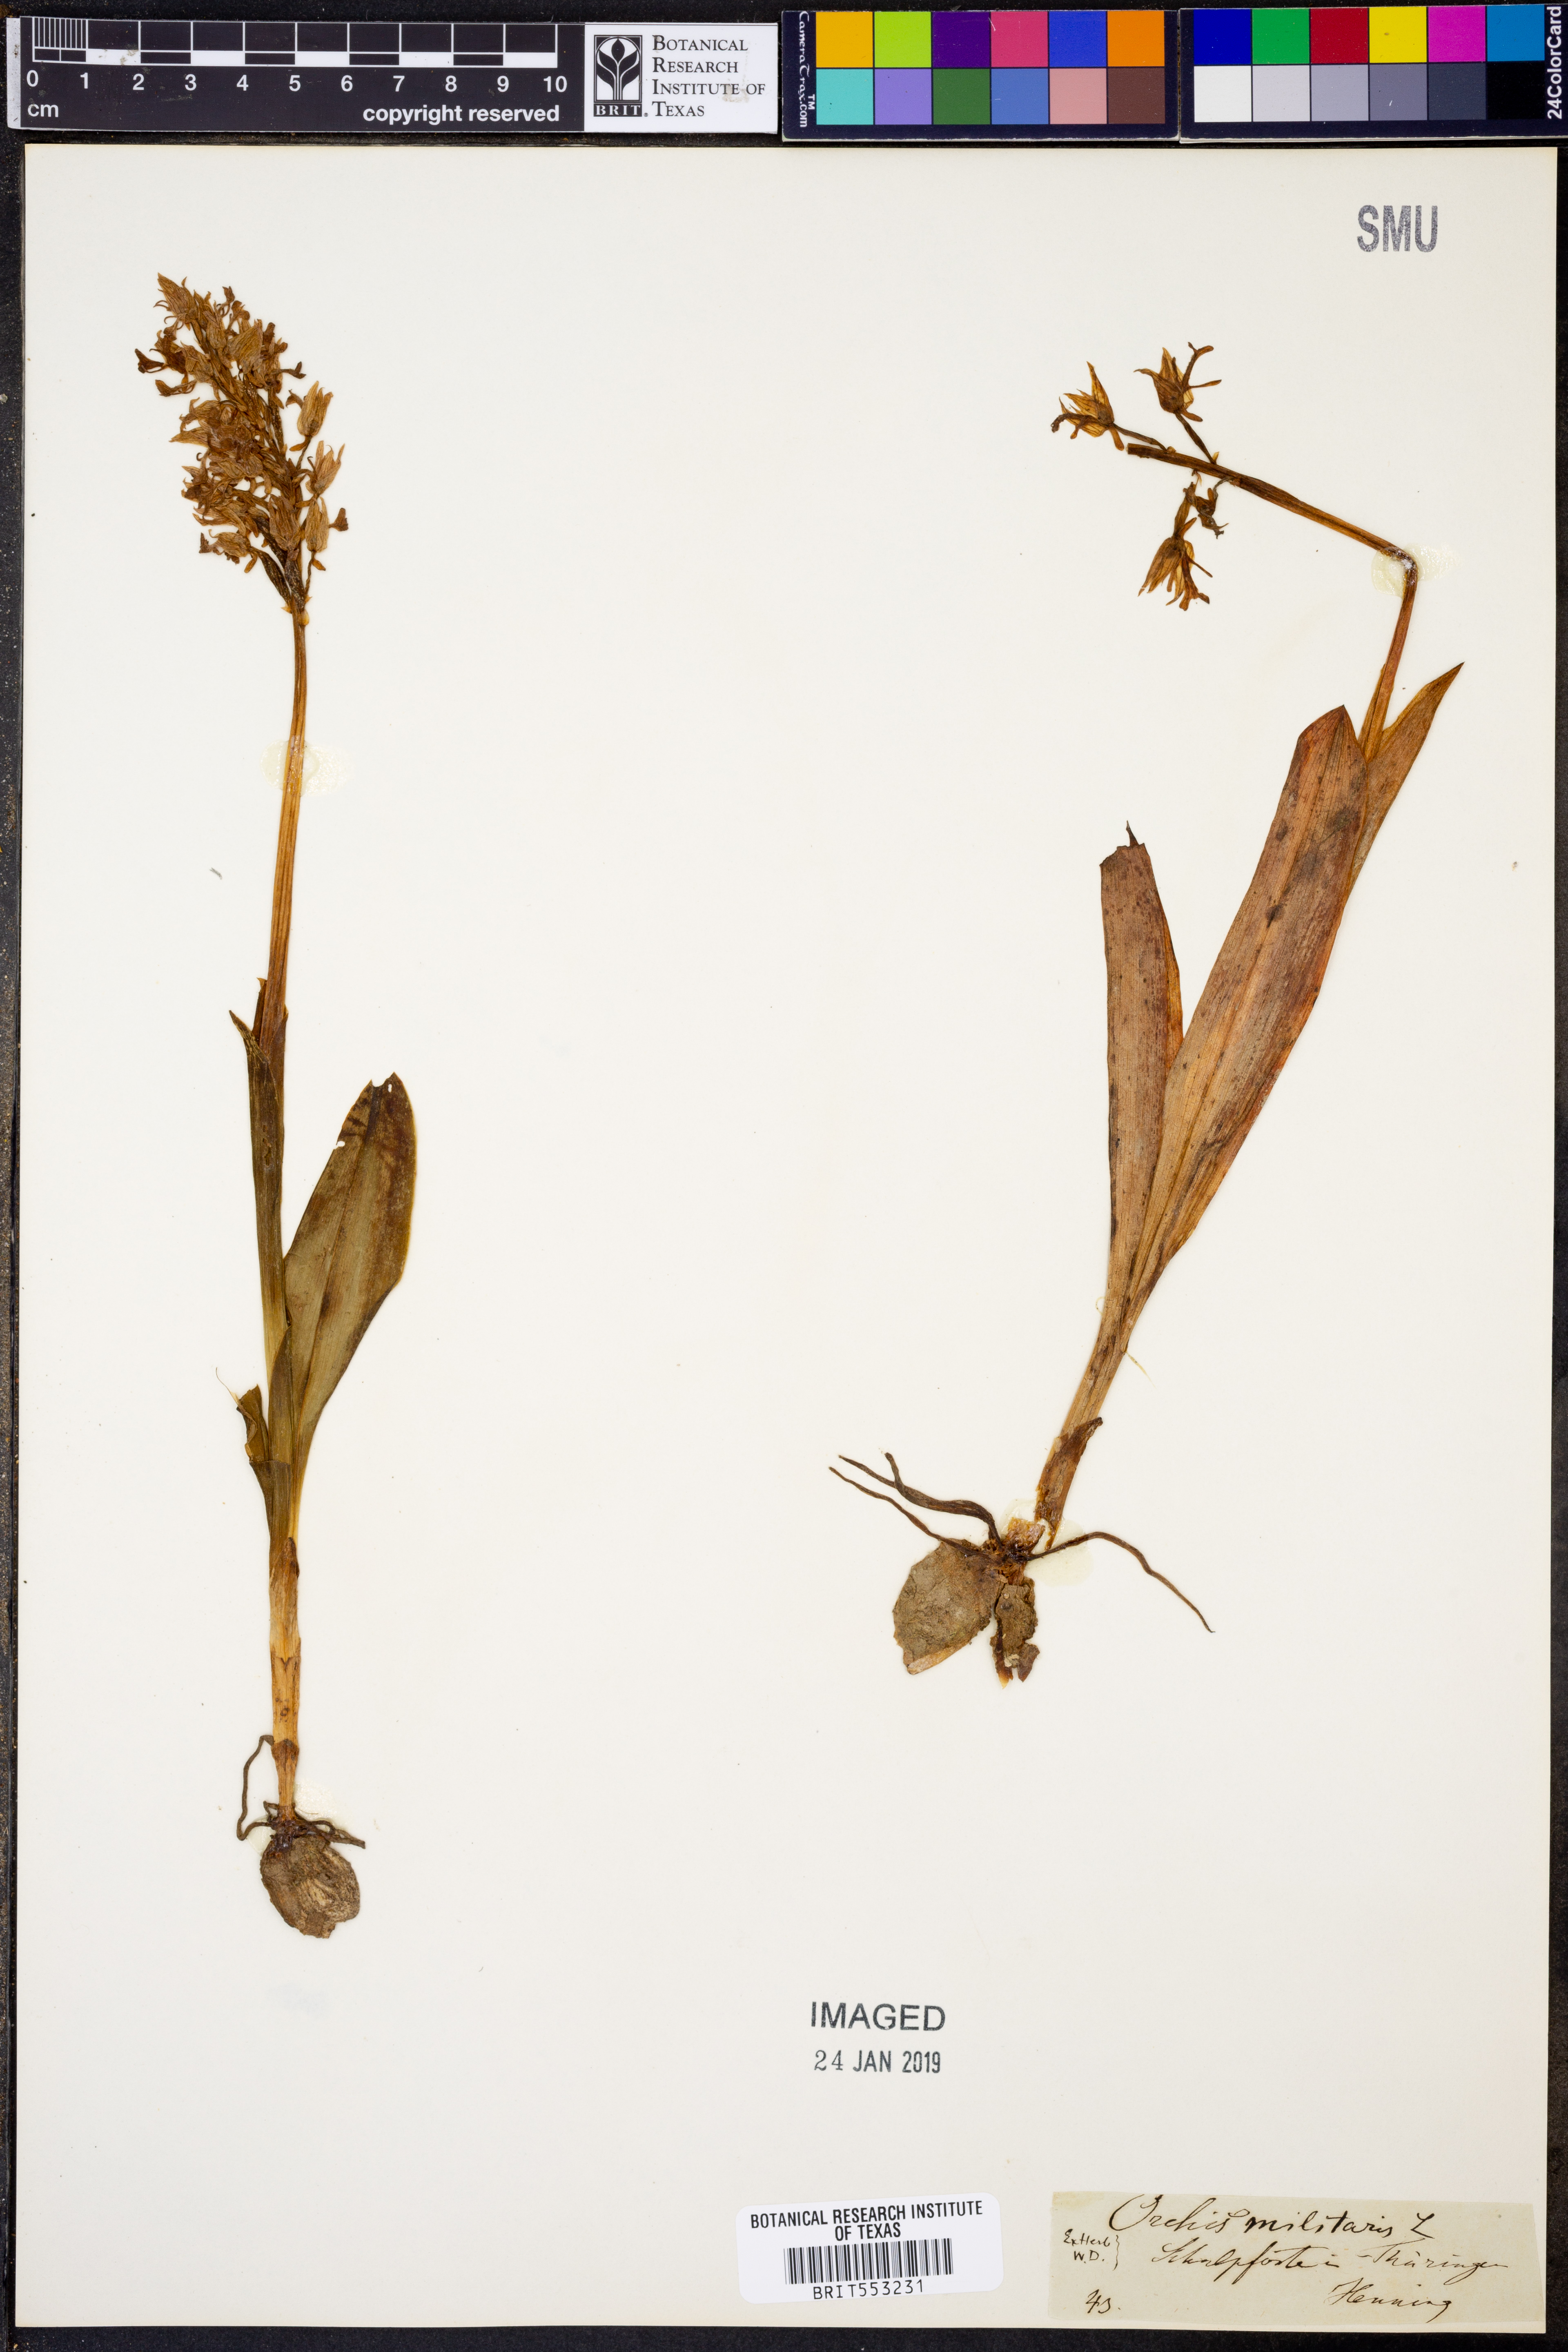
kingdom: Plantae
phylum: Tracheophyta
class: Liliopsida
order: Asparagales
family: Orchidaceae
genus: Orchis
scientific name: Orchis militaris
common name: Military orchid
